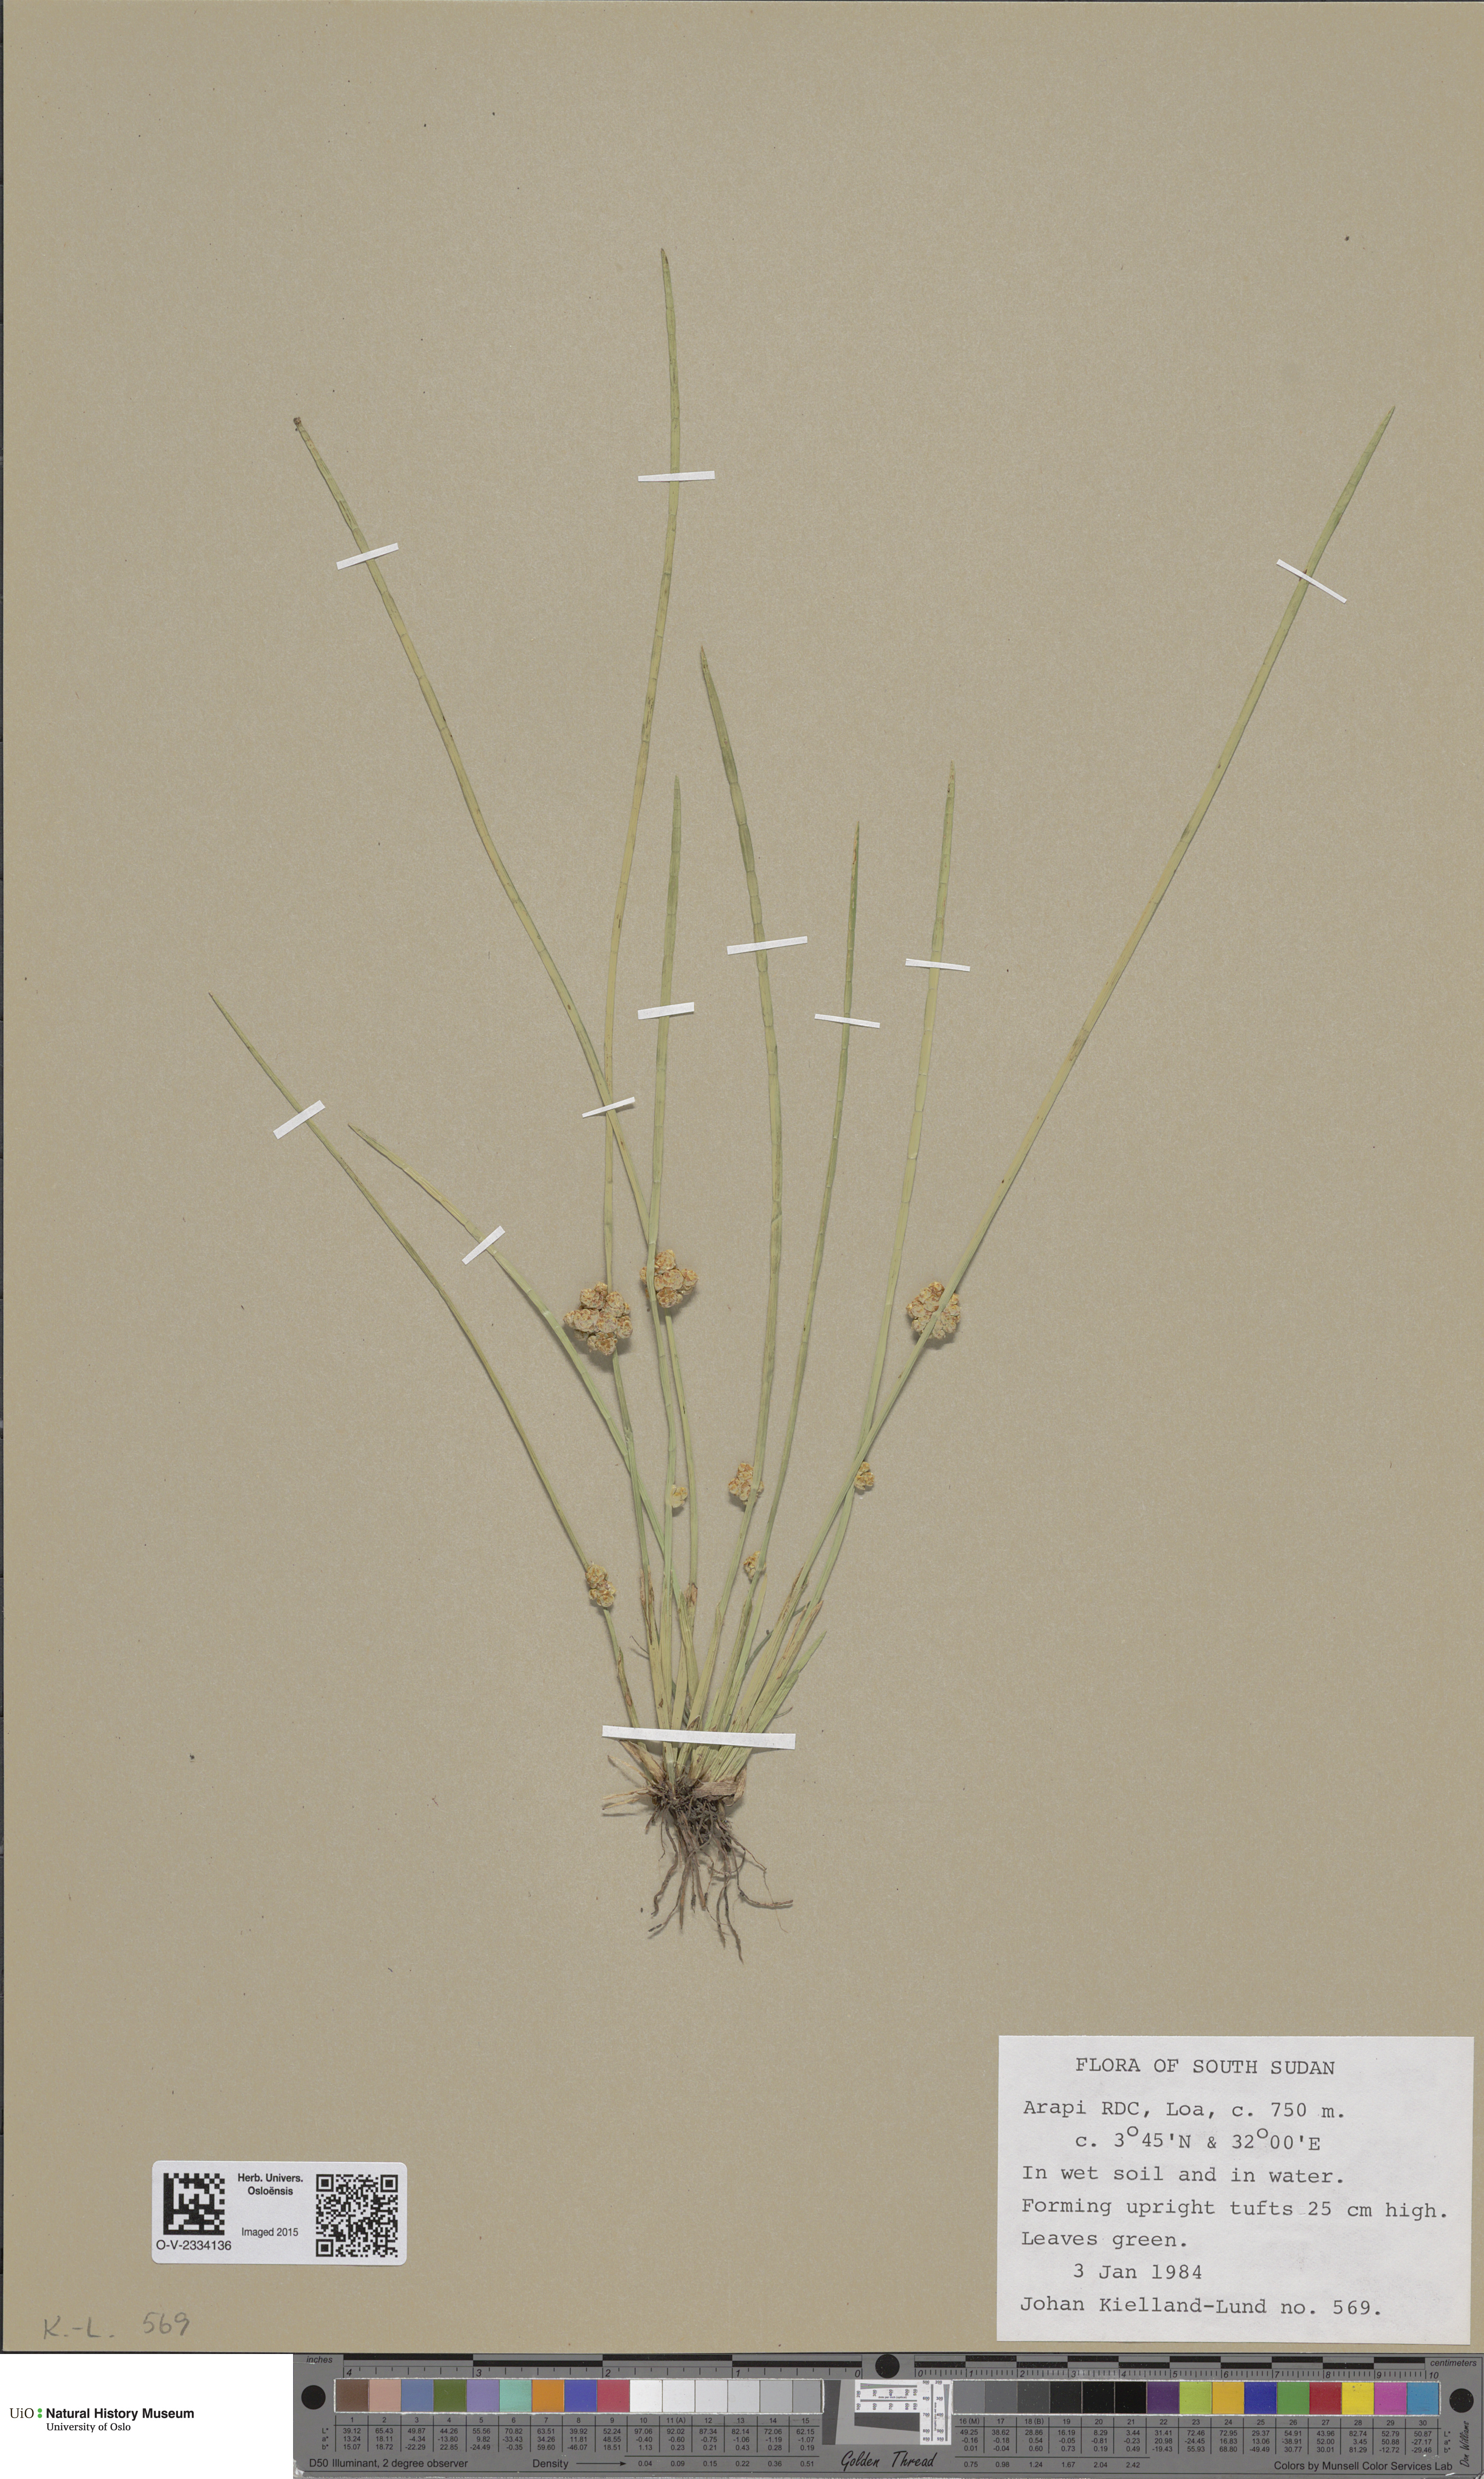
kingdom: Plantae
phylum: Tracheophyta
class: Magnoliopsida
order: Ranunculales
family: Ranunculaceae
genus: Ranunculus
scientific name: Ranunculus sulphureus
